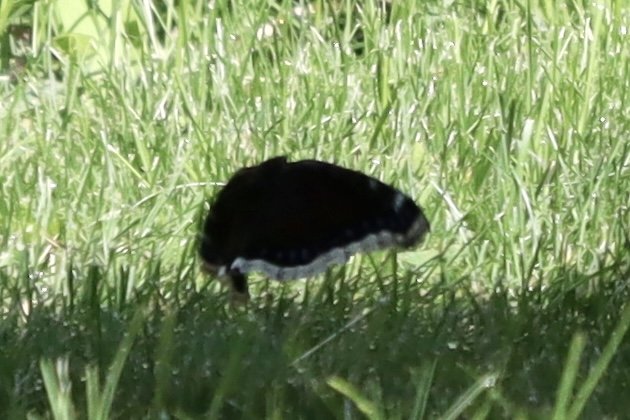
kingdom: Animalia
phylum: Arthropoda
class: Insecta
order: Lepidoptera
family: Nymphalidae
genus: Nymphalis
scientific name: Nymphalis antiopa
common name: Mourning Cloak
